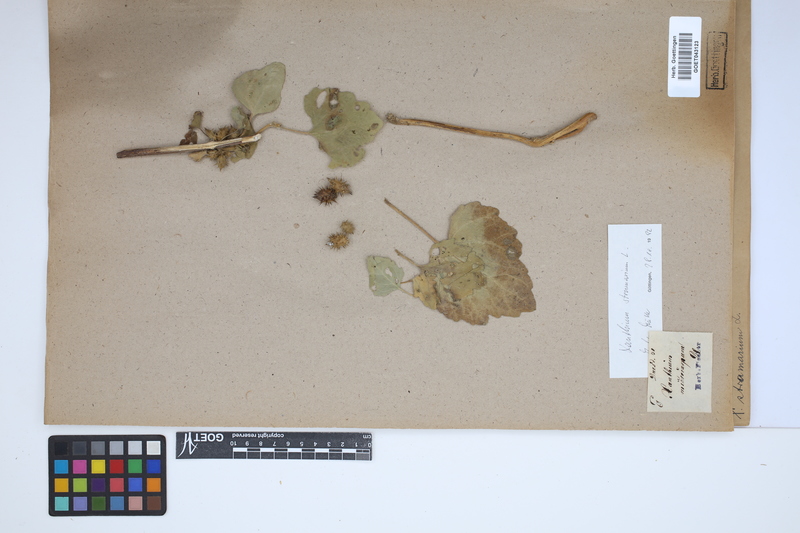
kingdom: Plantae
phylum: Tracheophyta
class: Magnoliopsida
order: Asterales
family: Asteraceae
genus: Xanthium
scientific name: Xanthium strumarium
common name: Rough cocklebur
